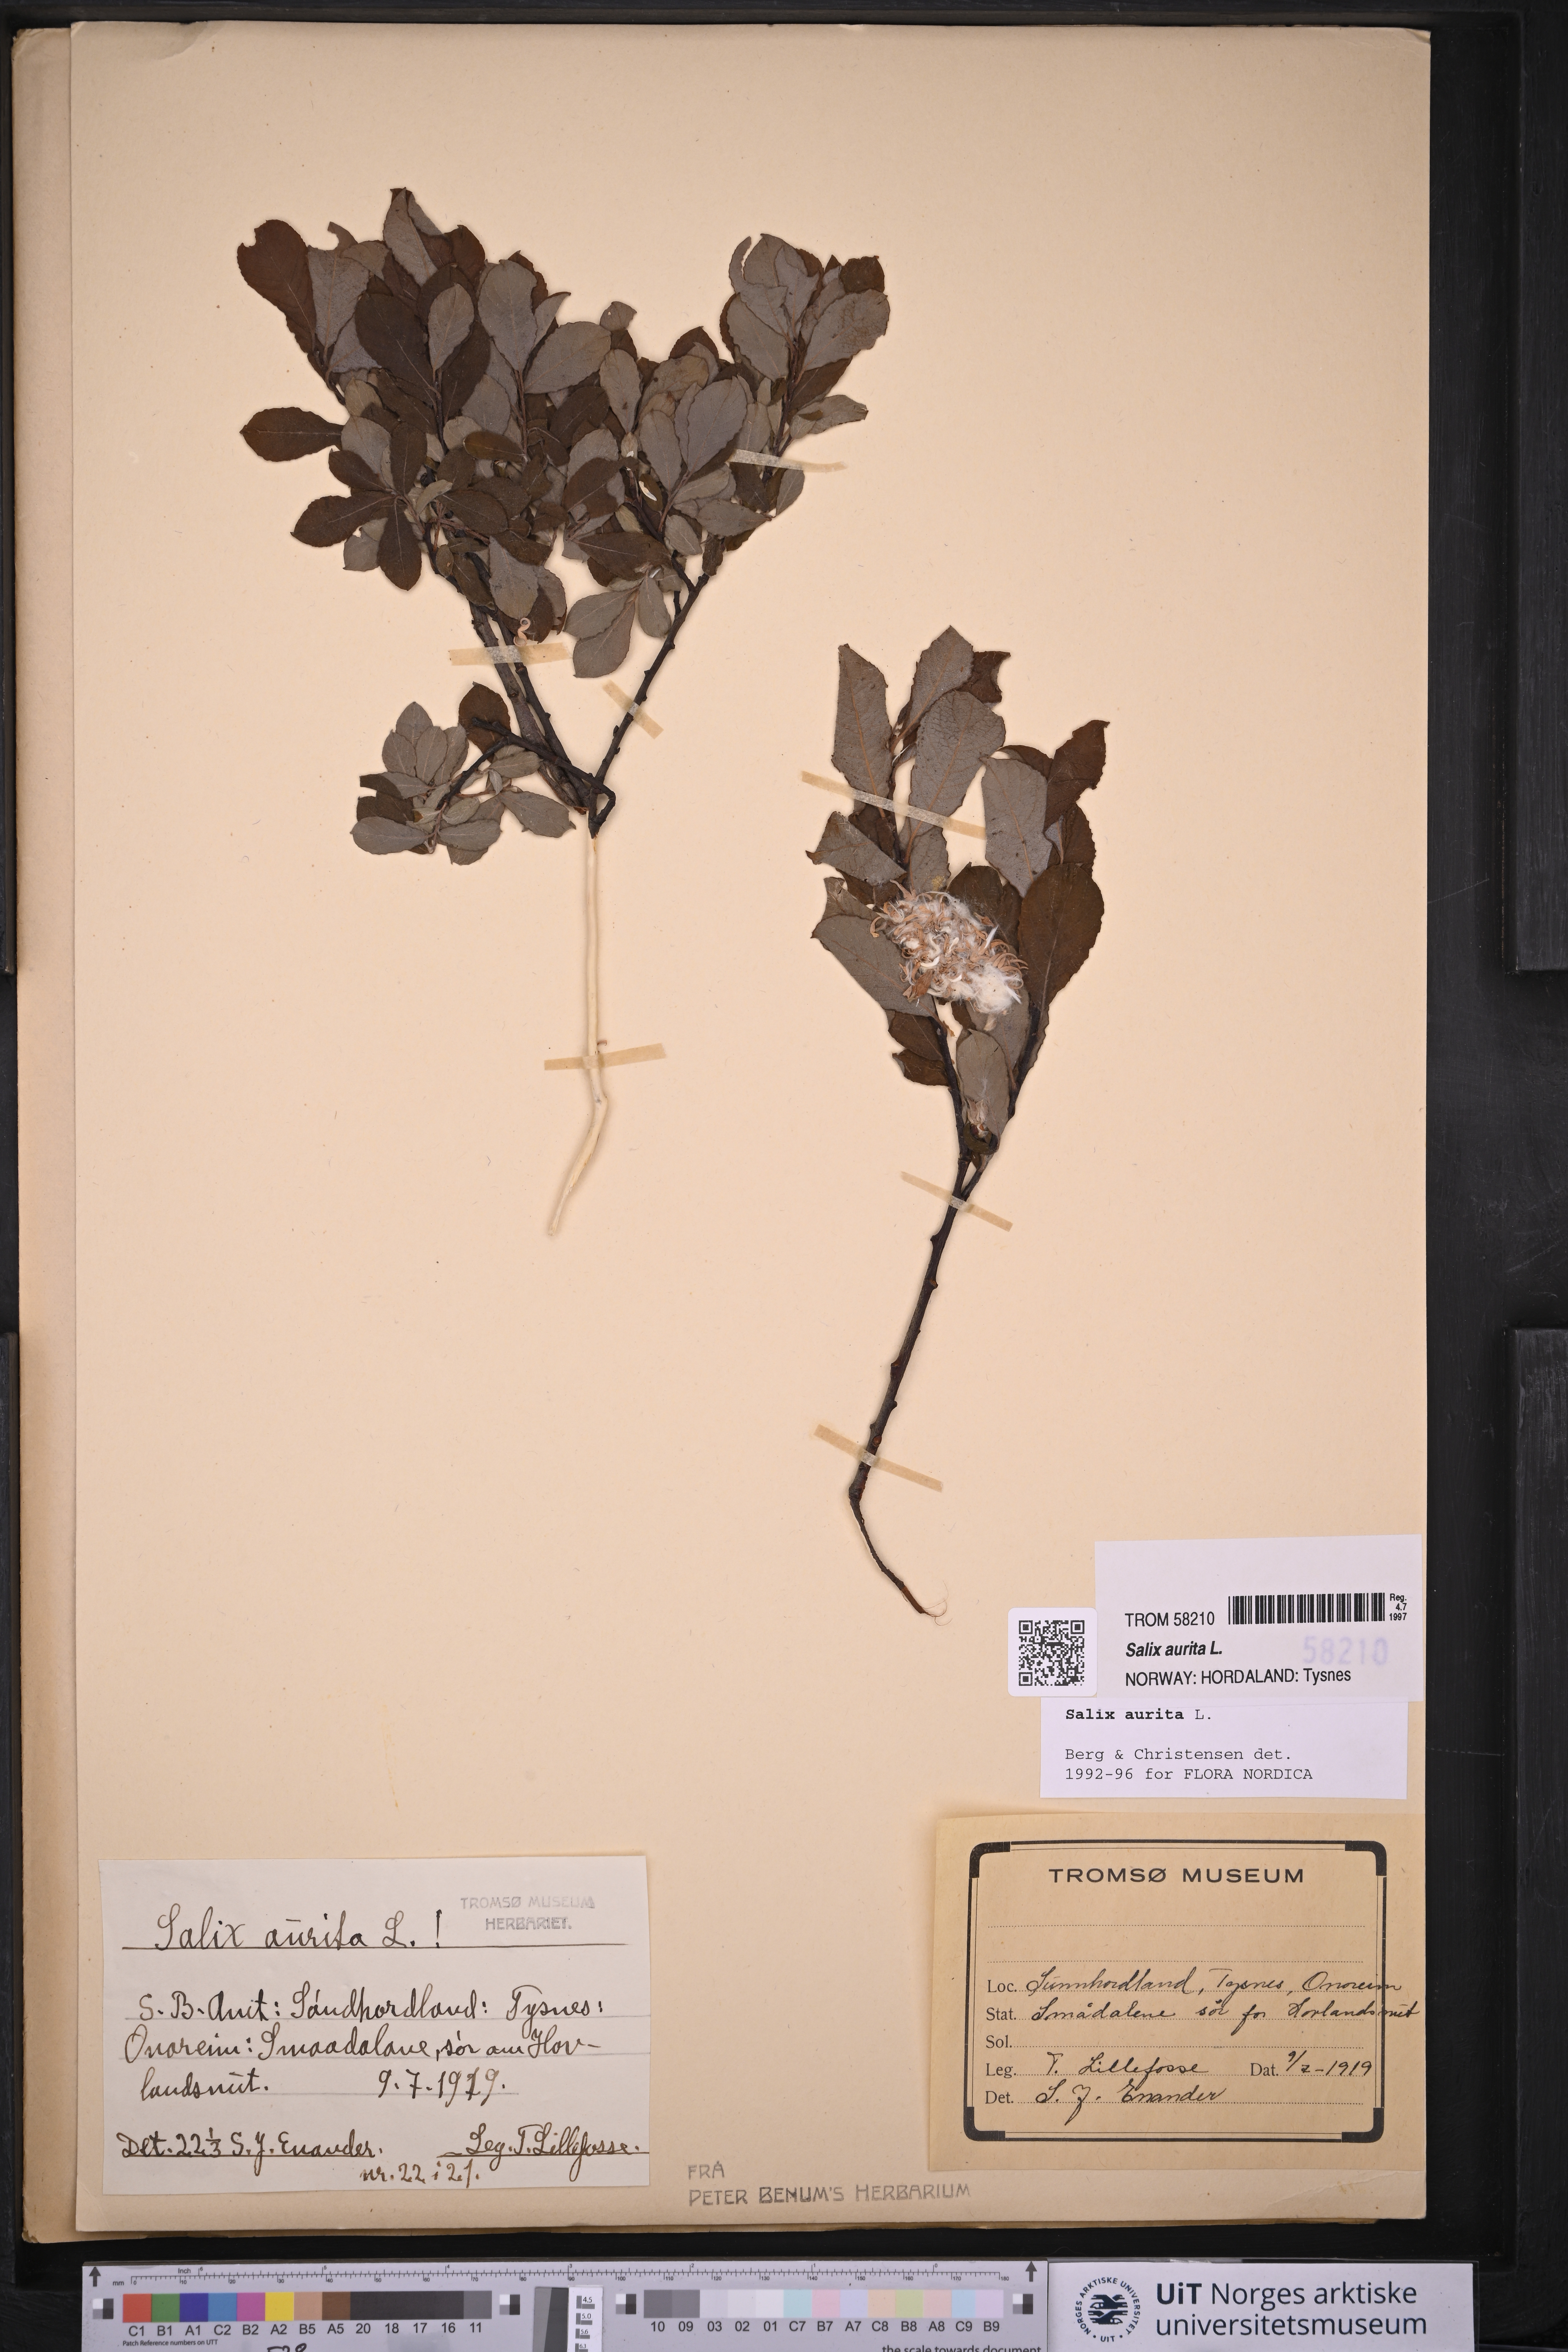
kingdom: Plantae
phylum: Tracheophyta
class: Magnoliopsida
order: Malpighiales
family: Salicaceae
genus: Salix
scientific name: Salix aurita
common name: Eared willow
